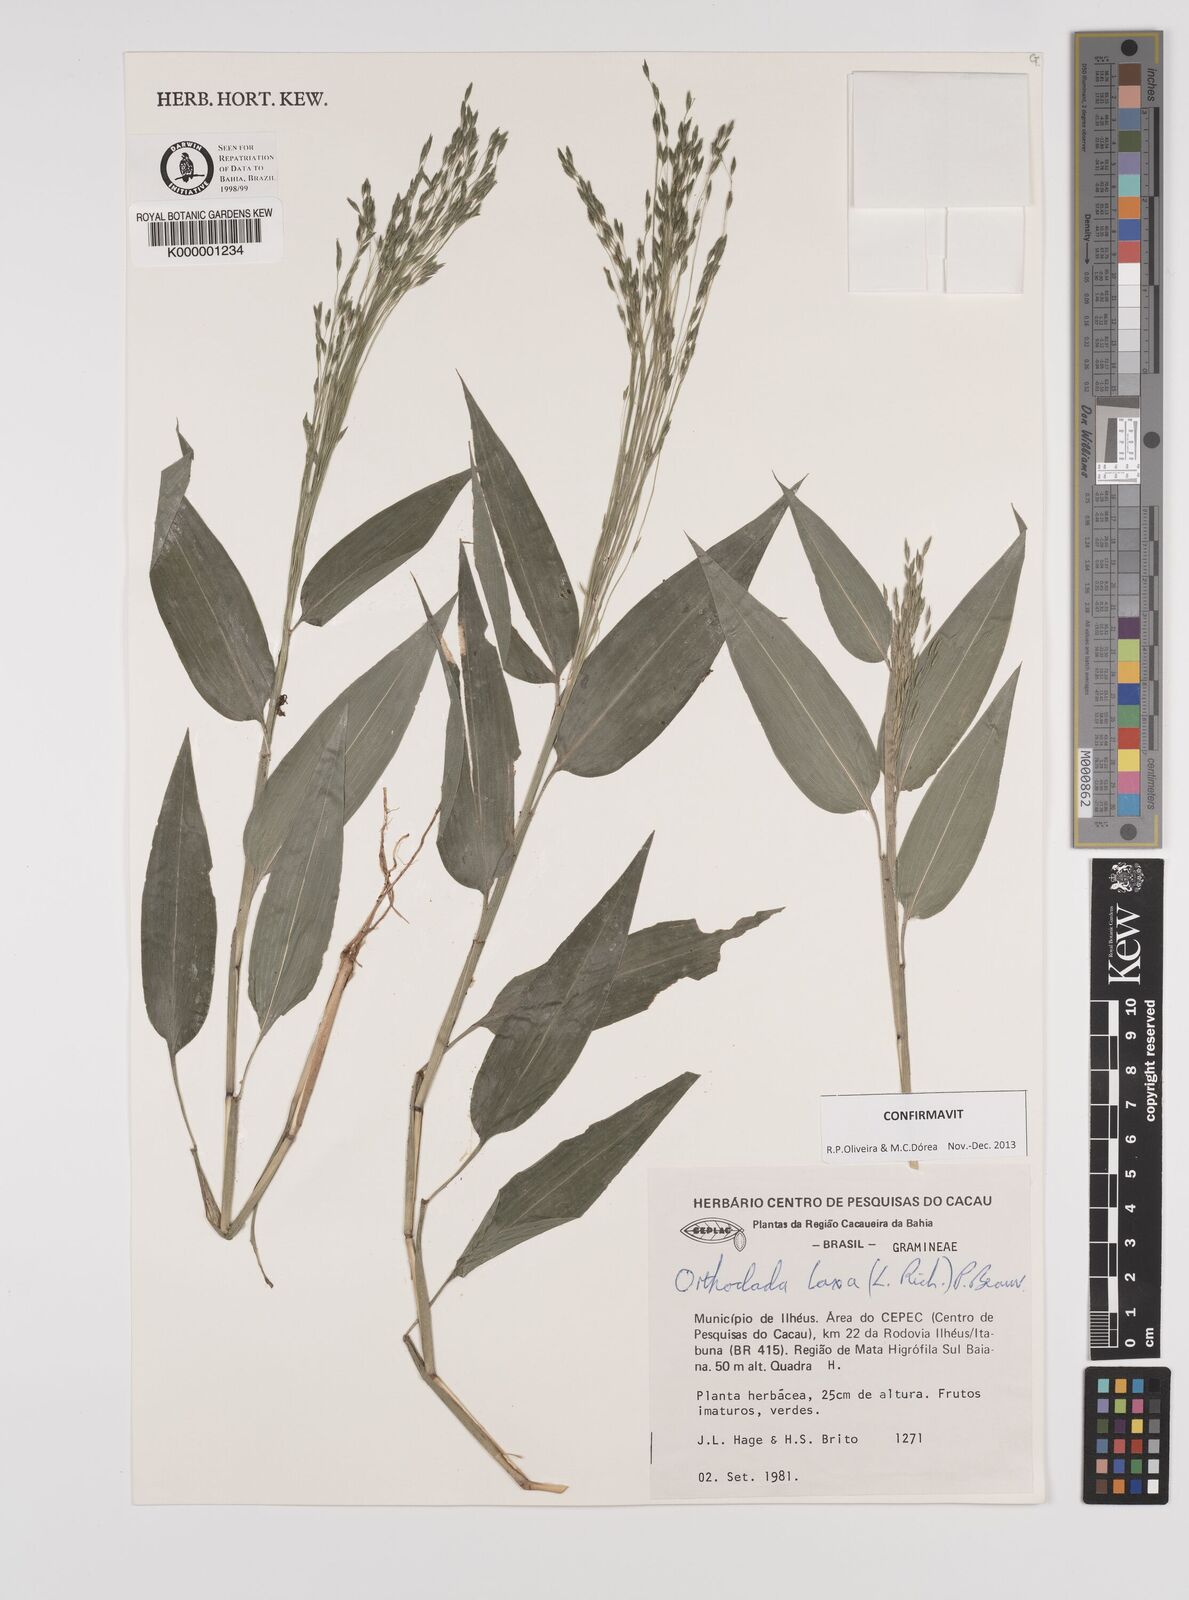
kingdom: Plantae
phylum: Tracheophyta
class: Liliopsida
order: Poales
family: Poaceae
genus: Orthoclada
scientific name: Orthoclada laxa
